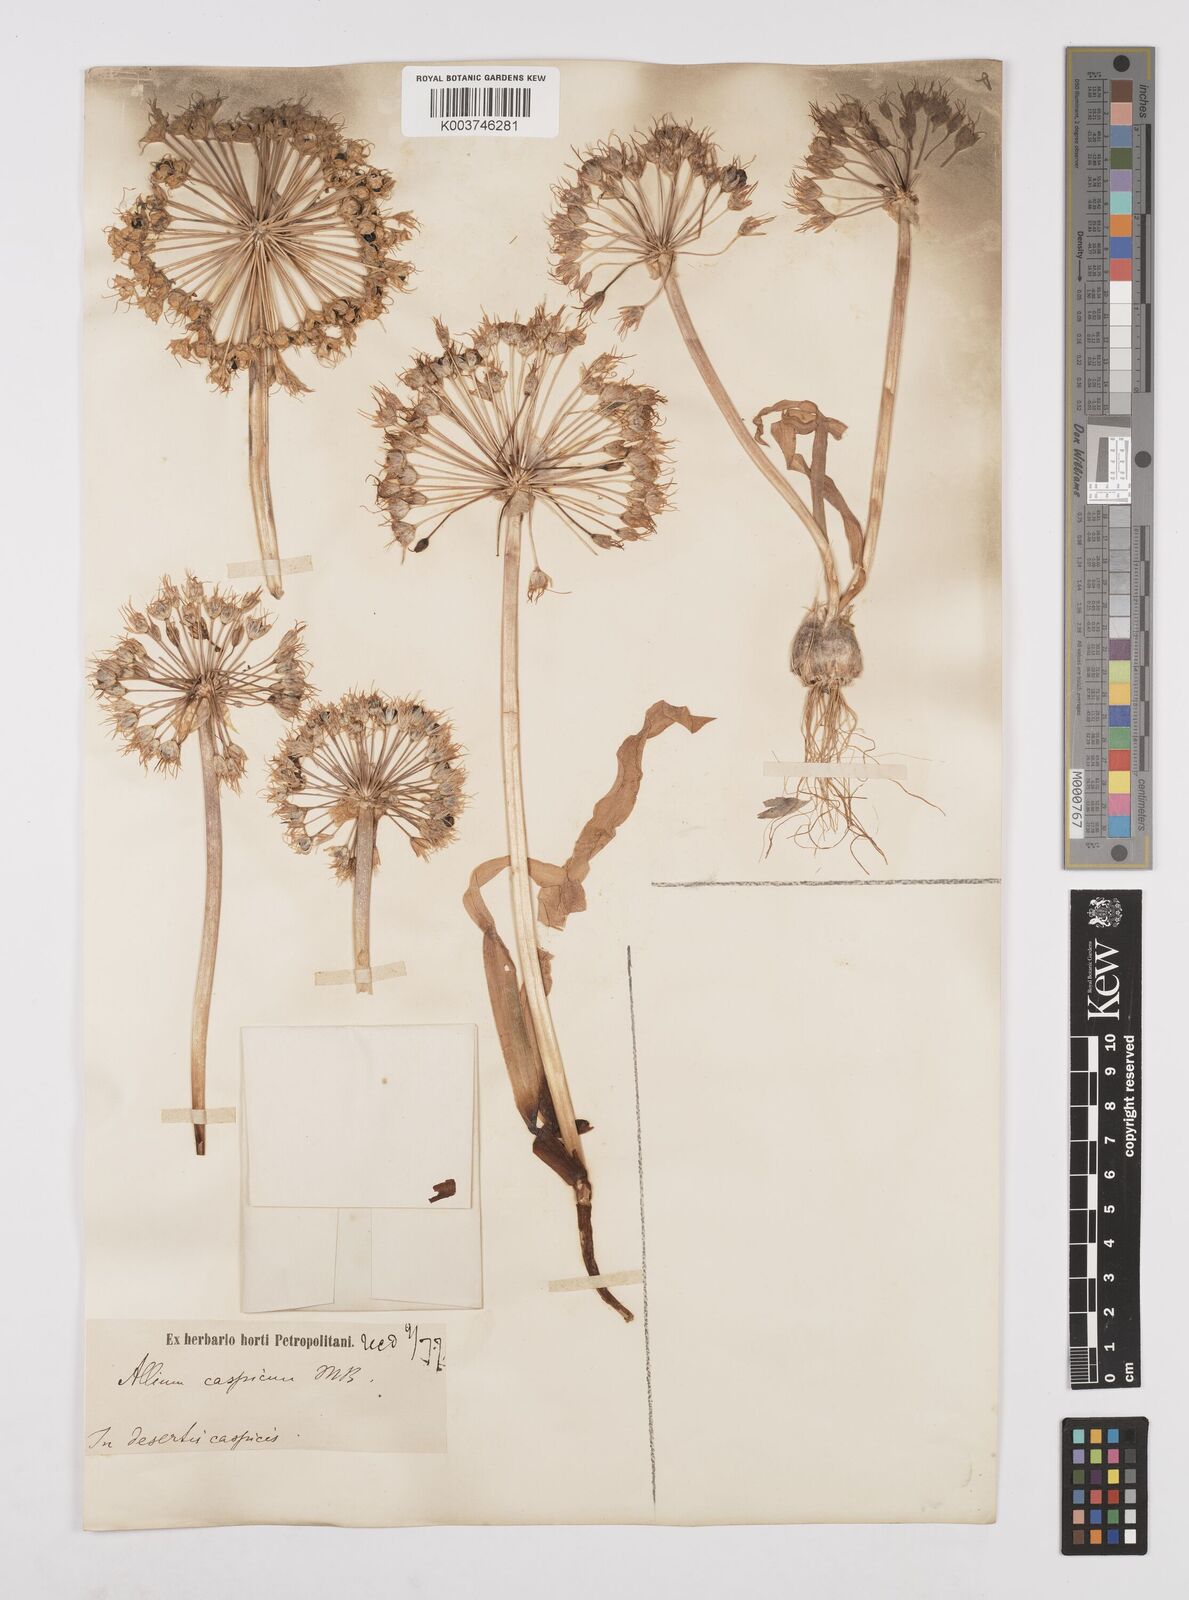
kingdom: Plantae
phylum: Tracheophyta
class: Liliopsida
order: Asparagales
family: Amaryllidaceae
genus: Allium
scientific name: Allium caspium
